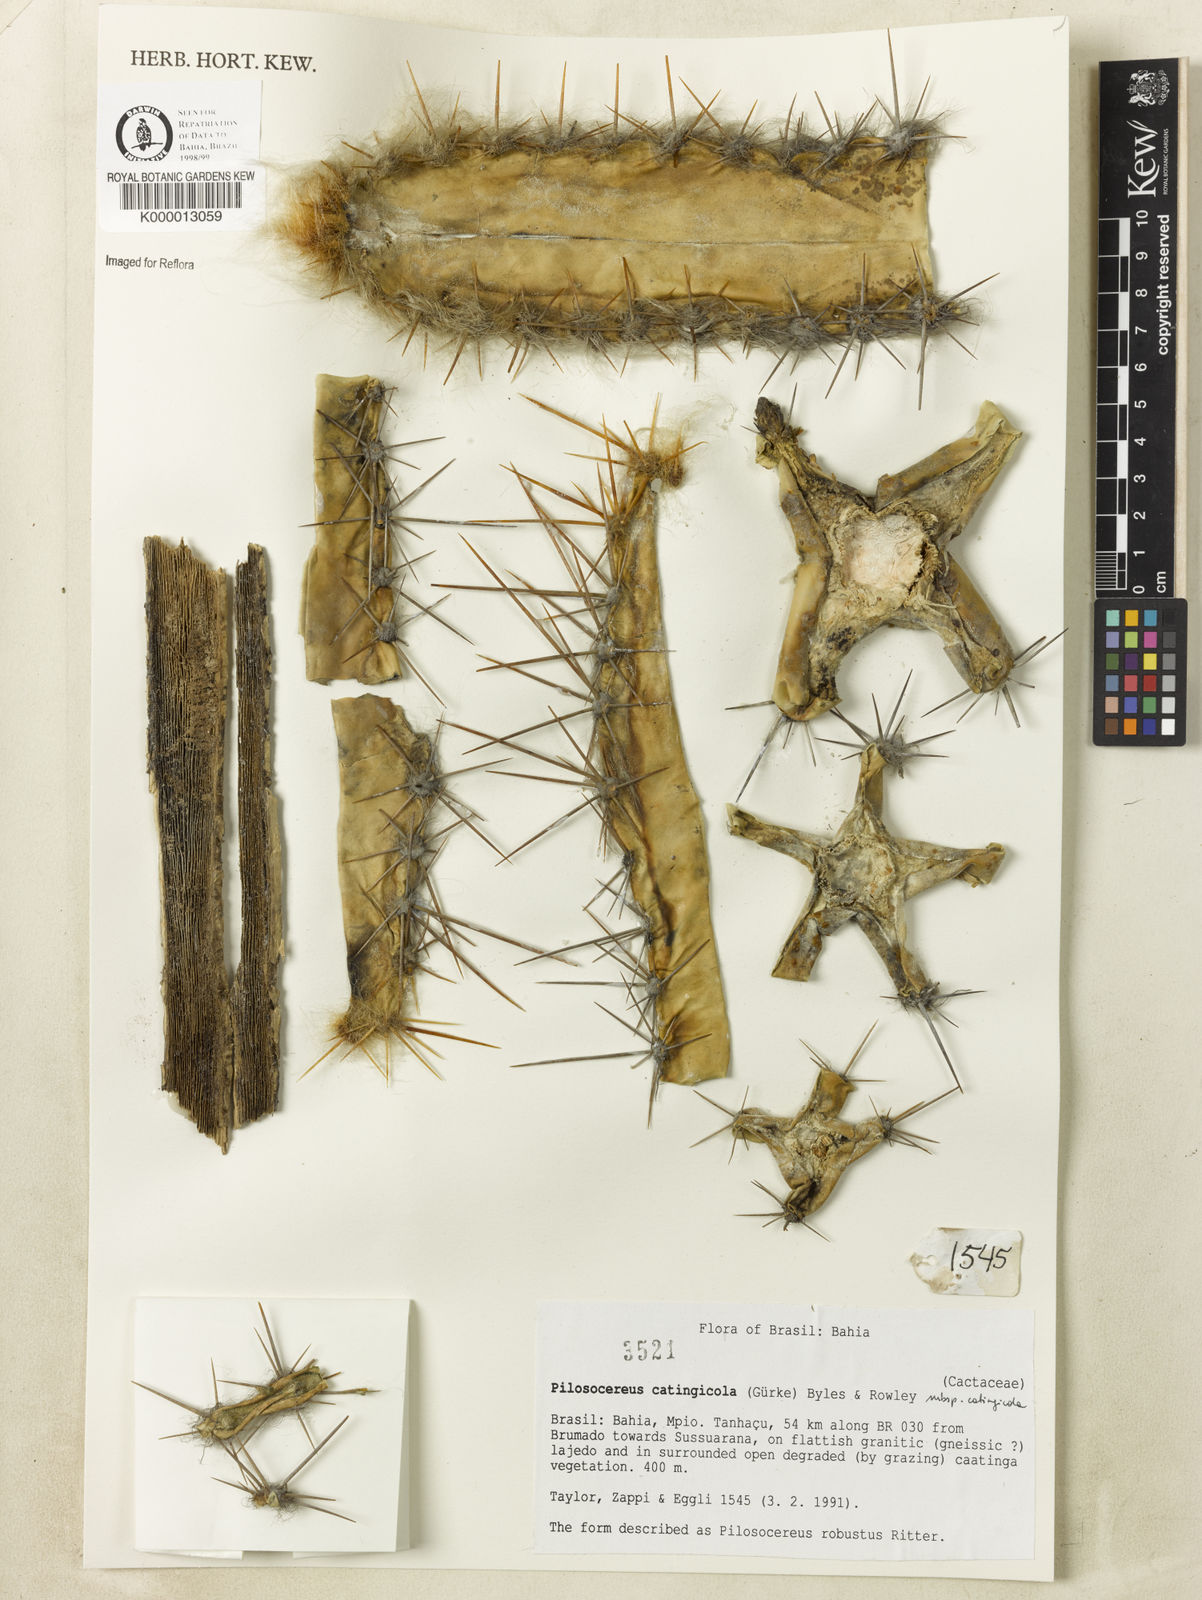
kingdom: Plantae
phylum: Tracheophyta
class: Magnoliopsida
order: Caryophyllales
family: Cactaceae
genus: Pilosocereus
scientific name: Pilosocereus catingicola
